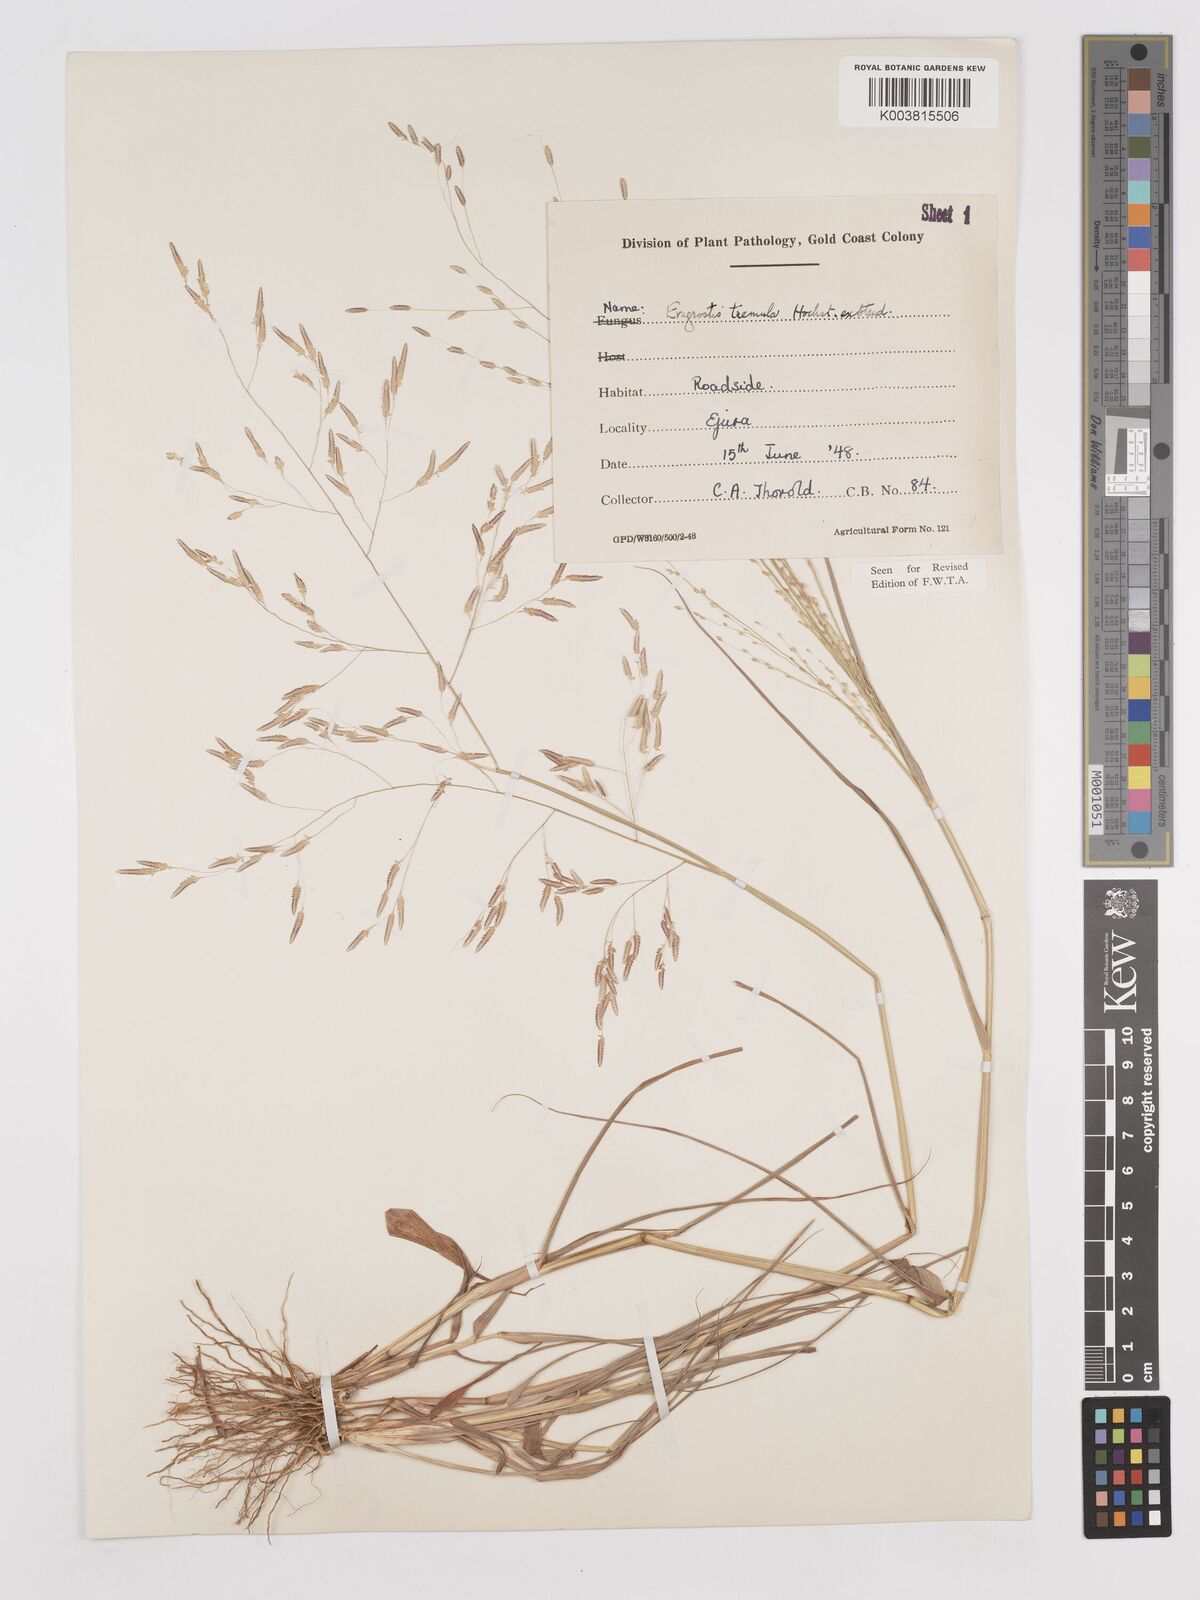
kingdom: Plantae
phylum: Tracheophyta
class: Liliopsida
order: Poales
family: Poaceae
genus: Eragrostis
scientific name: Eragrostis tremula
